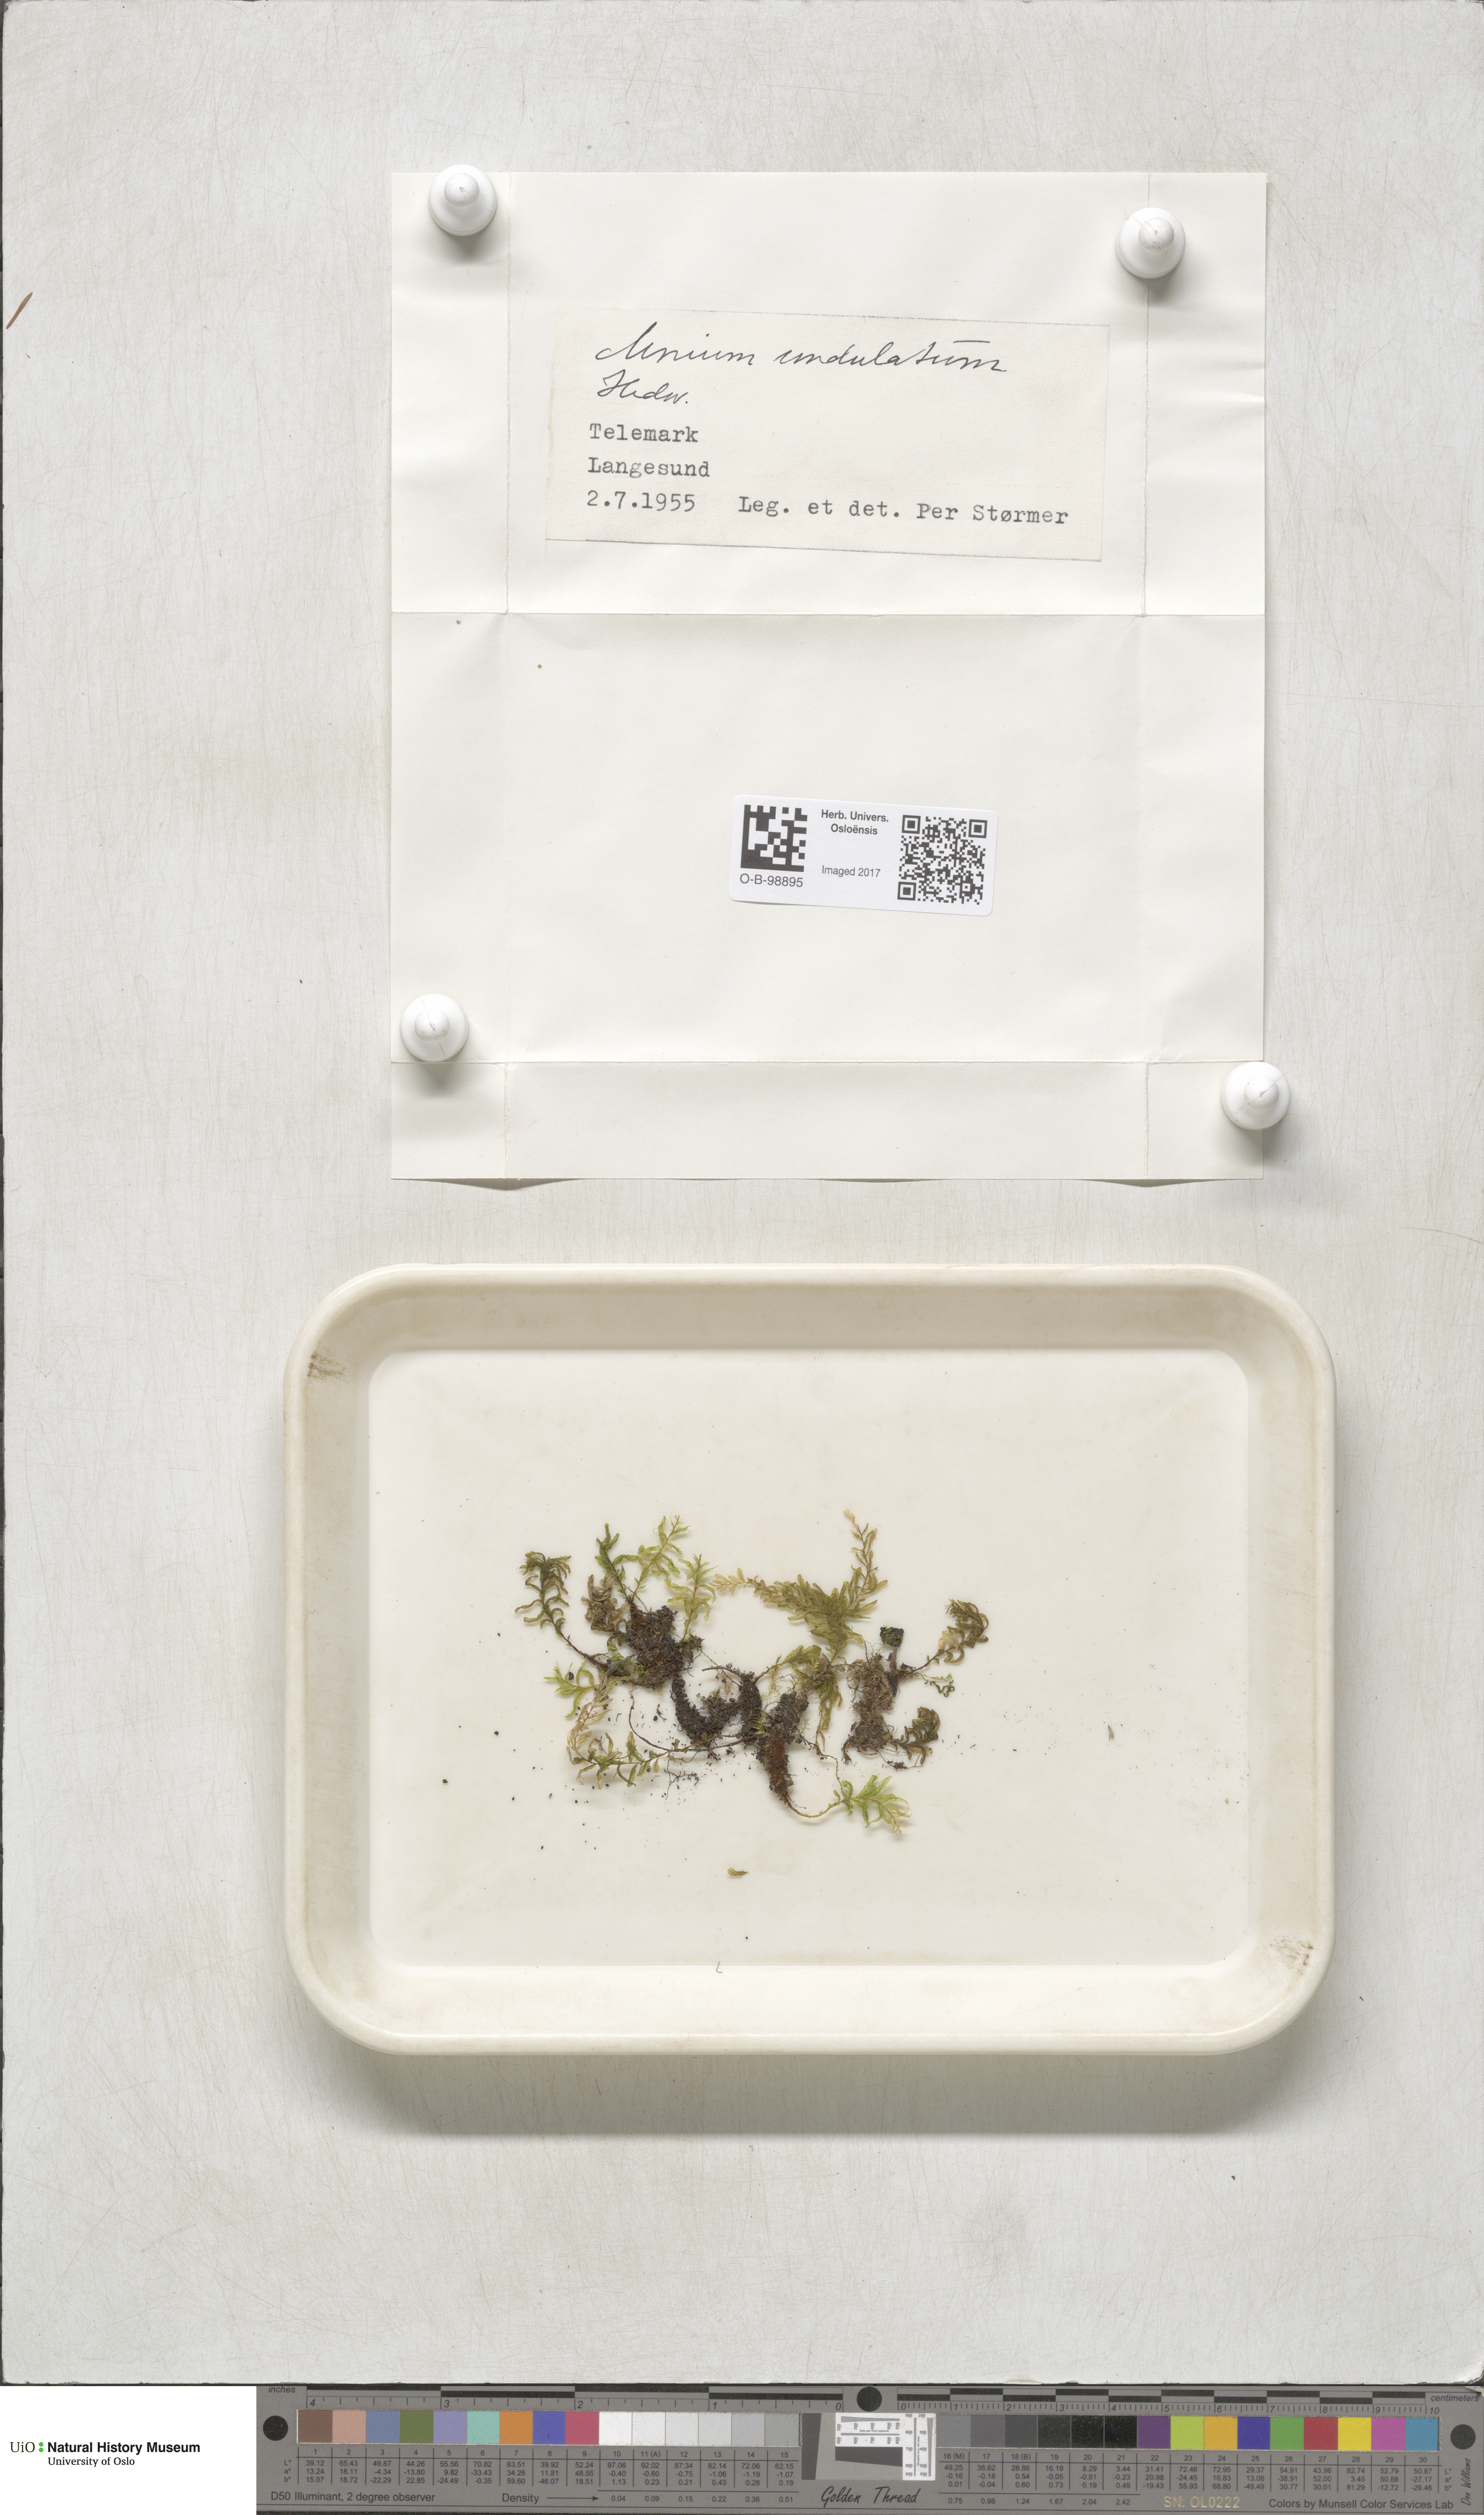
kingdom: Plantae
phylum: Bryophyta
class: Bryopsida
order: Bryales
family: Mniaceae
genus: Plagiomnium
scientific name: Plagiomnium undulatum
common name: Hart's-tongue thyme-moss
